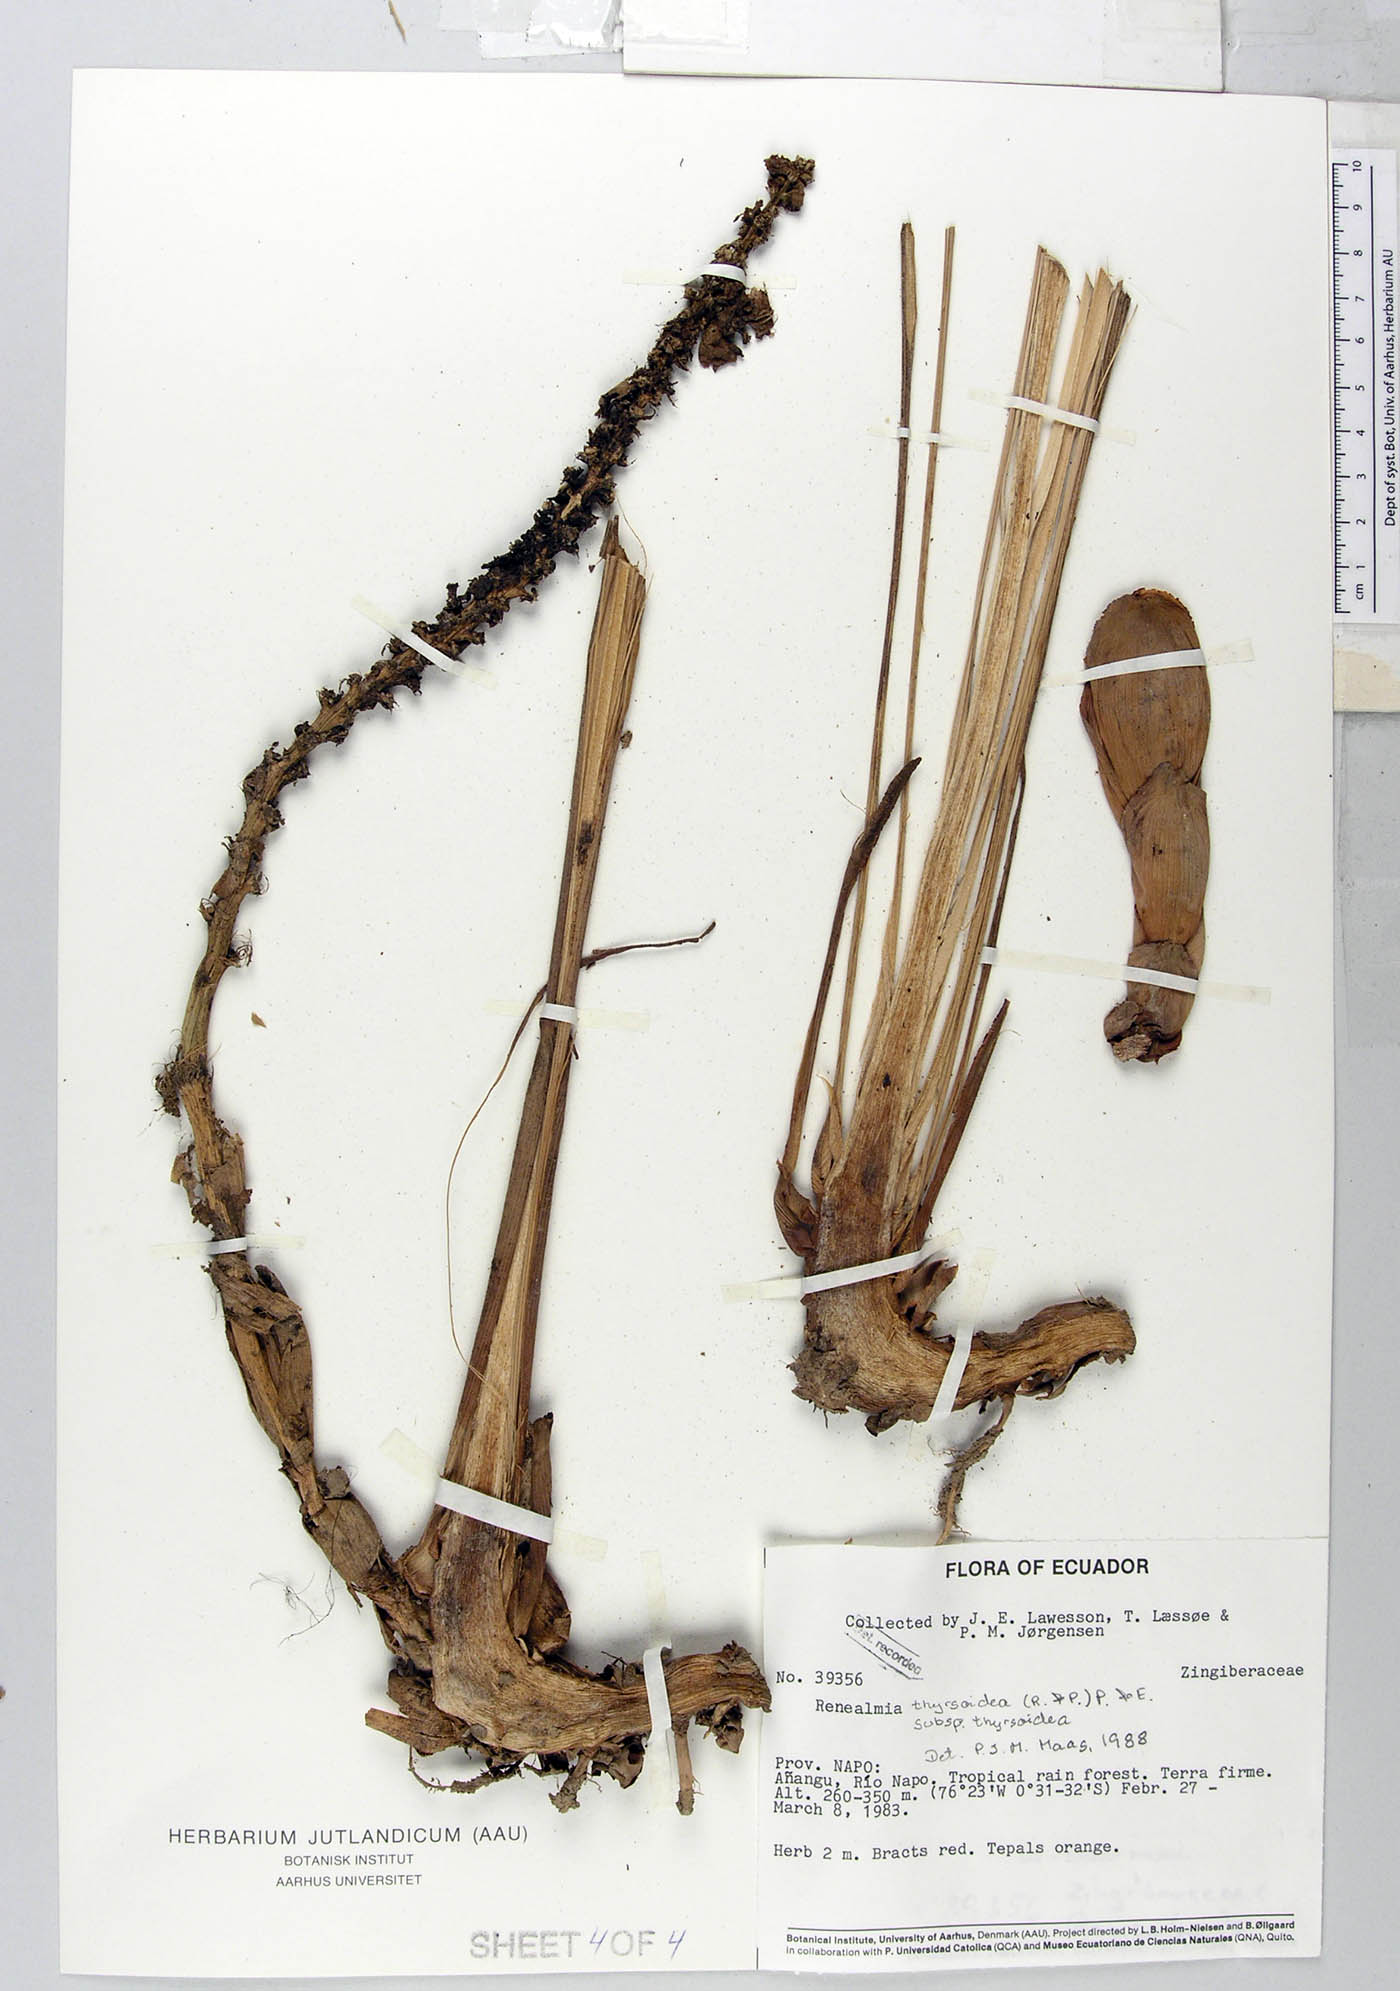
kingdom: Plantae
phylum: Tracheophyta
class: Liliopsida
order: Zingiberales
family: Zingiberaceae
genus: Renealmia
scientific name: Renealmia thyrsoidea
